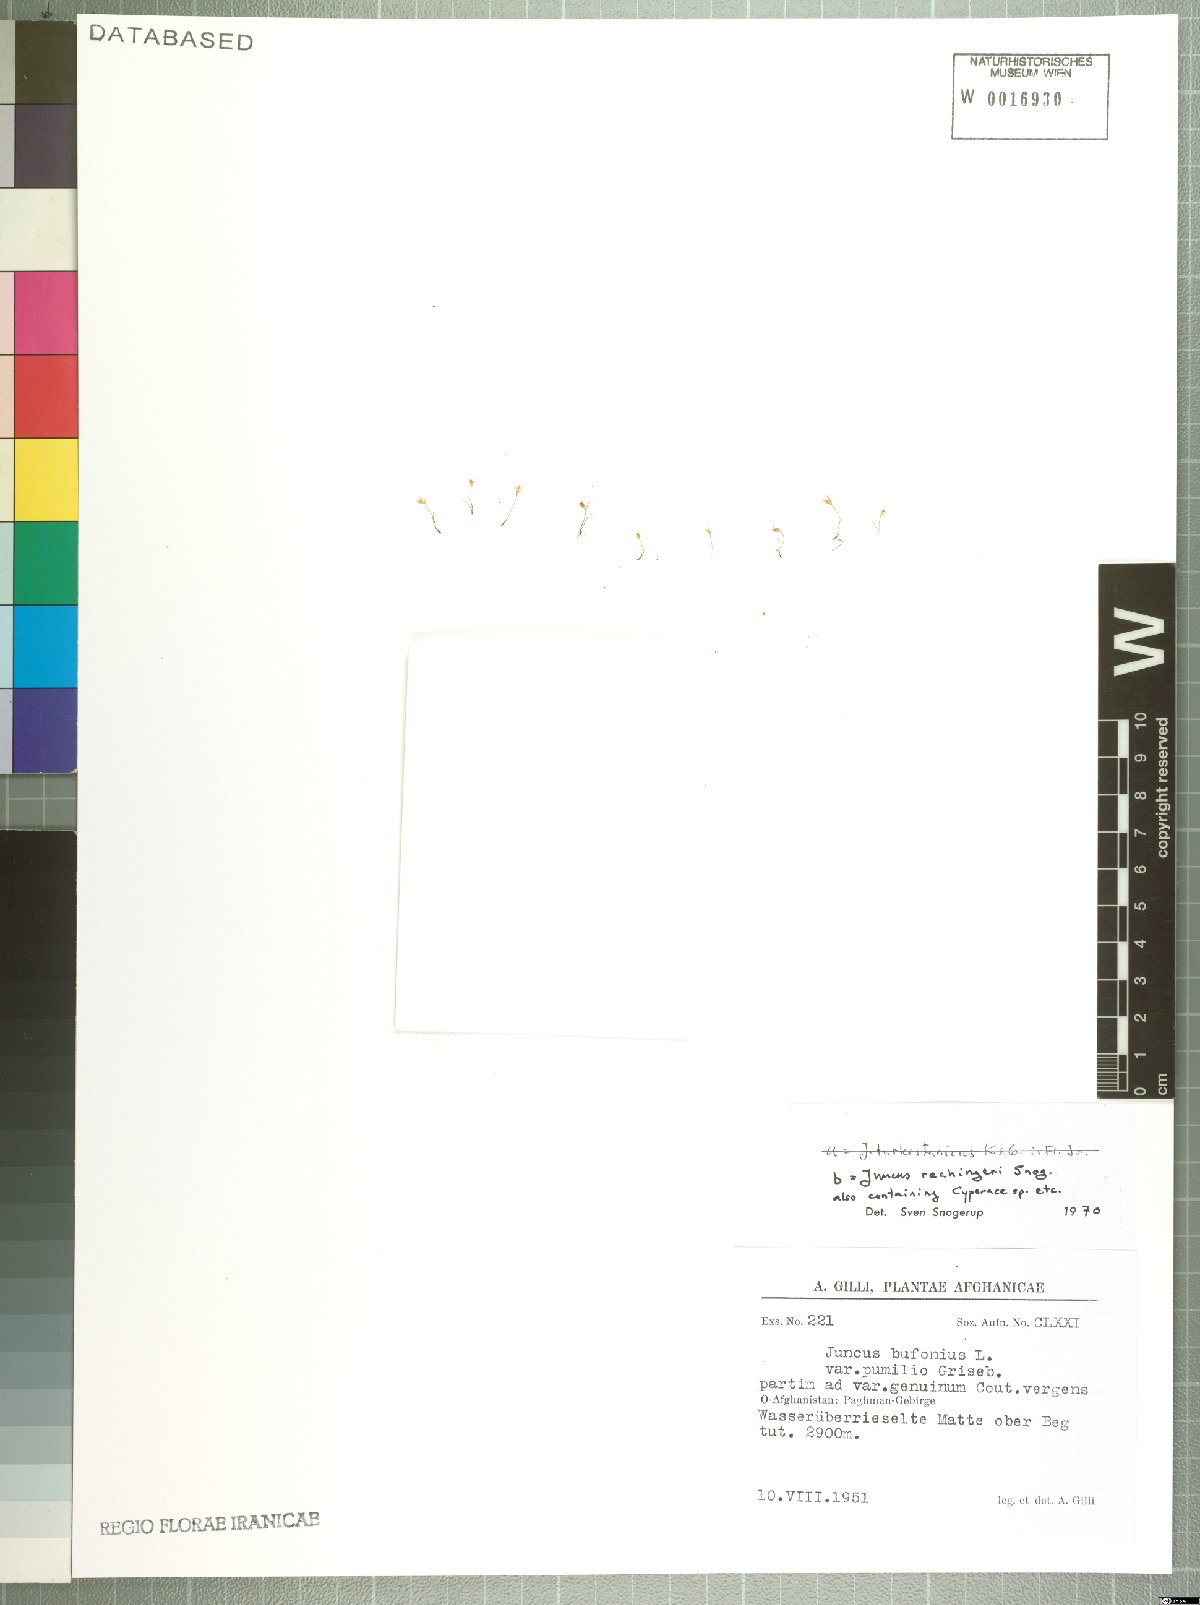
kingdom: Plantae
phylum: Tracheophyta
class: Liliopsida
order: Poales
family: Juncaceae
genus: Juncus
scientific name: Juncus rechingeri
